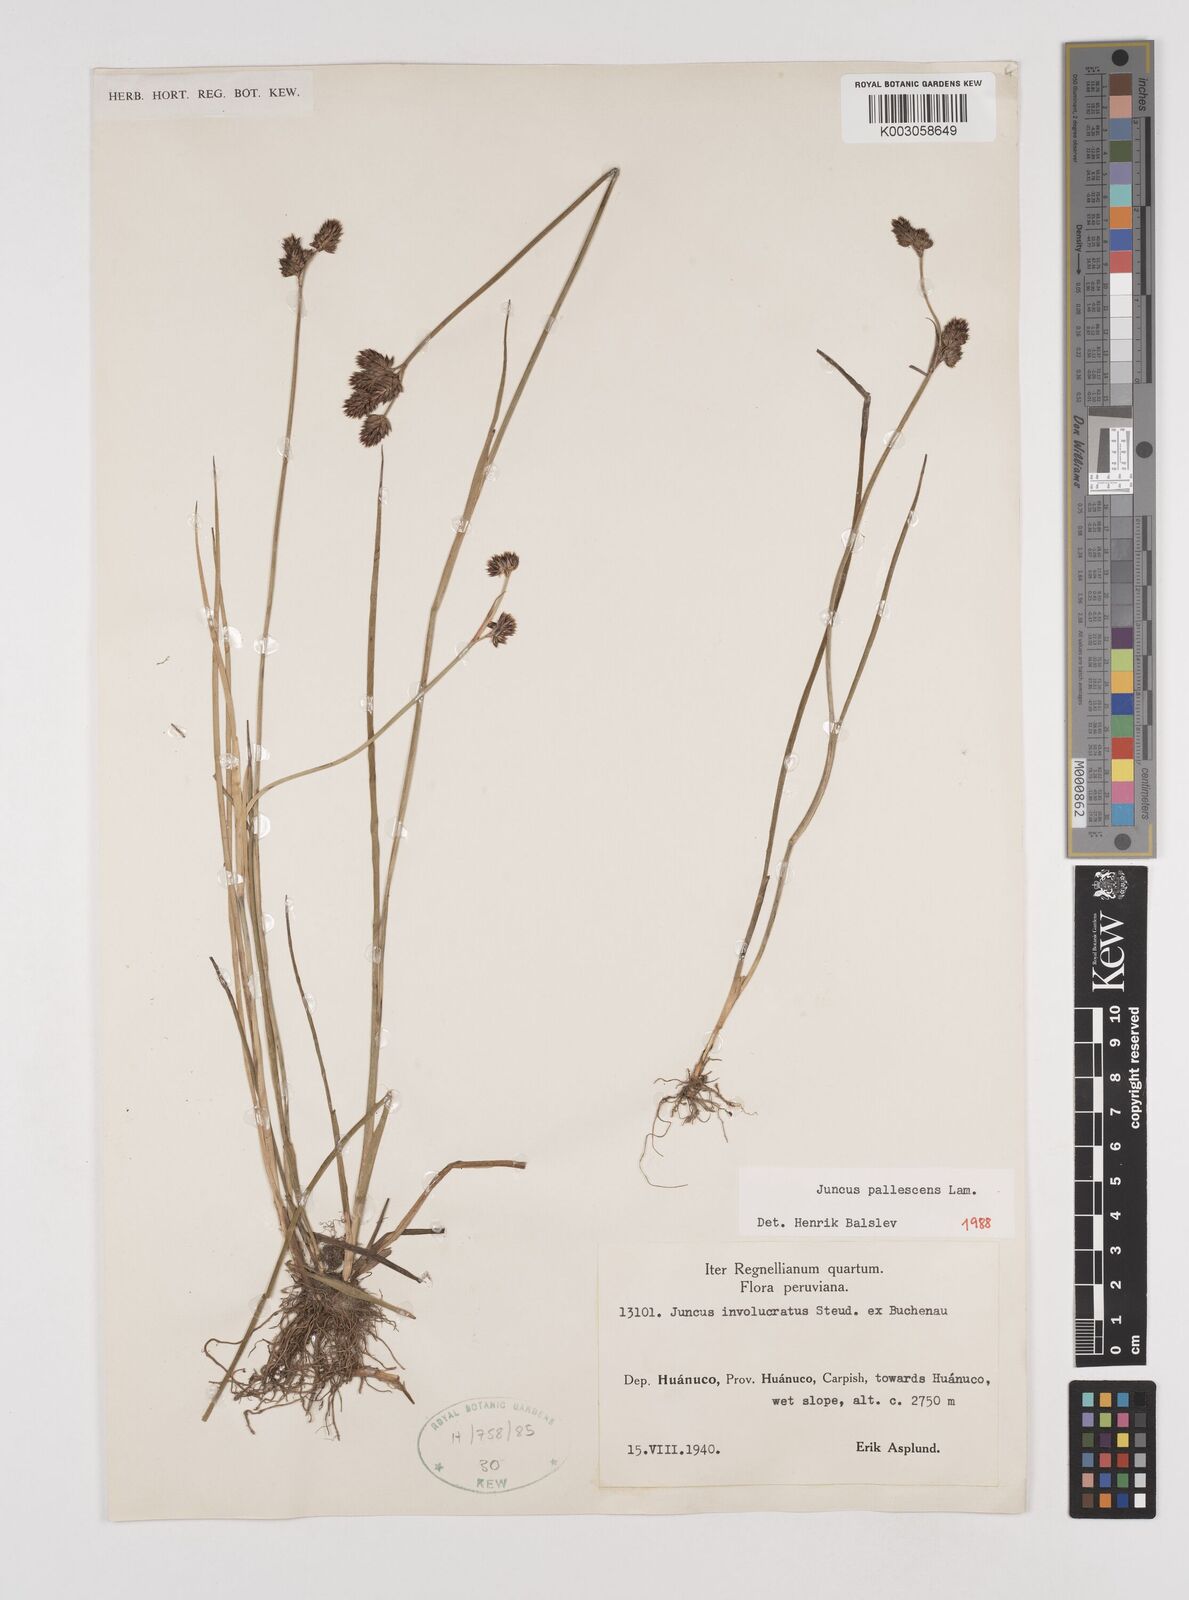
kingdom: Plantae
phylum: Tracheophyta
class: Liliopsida
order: Poales
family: Juncaceae
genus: Juncus
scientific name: Juncus pallescens
